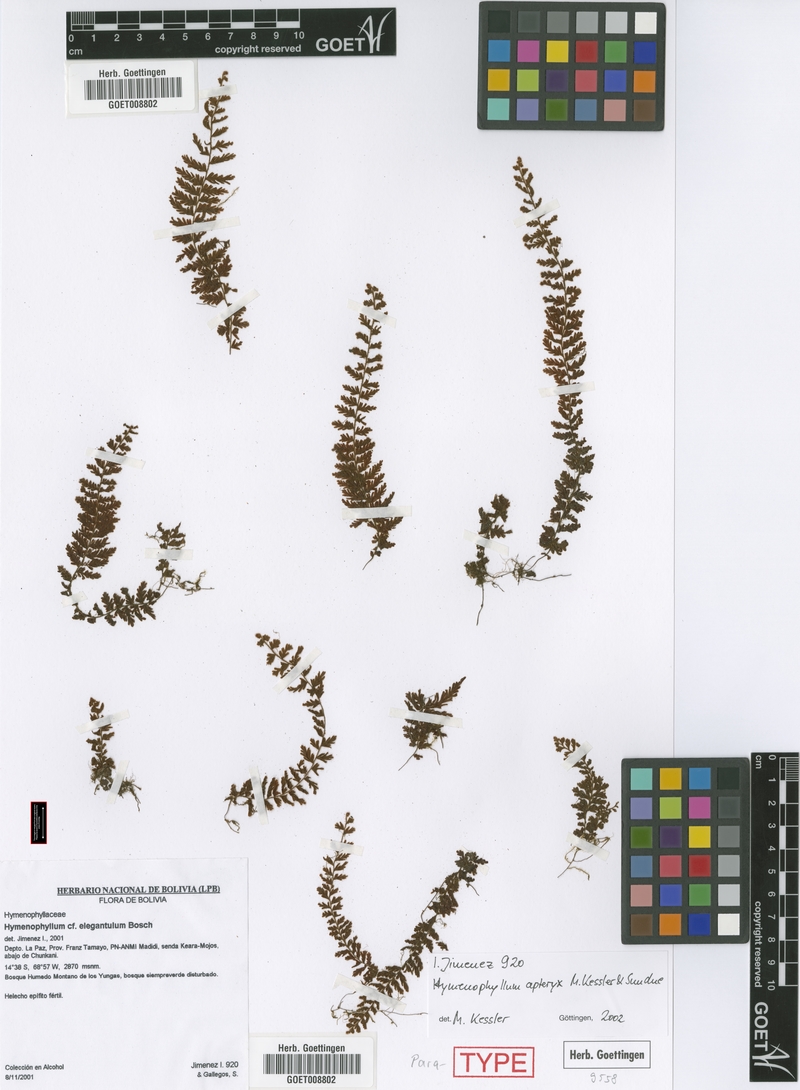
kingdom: Plantae
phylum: Tracheophyta
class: Polypodiopsida
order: Hymenophyllales
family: Hymenophyllaceae
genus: Hymenophyllum
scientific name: Hymenophyllum apteryx
